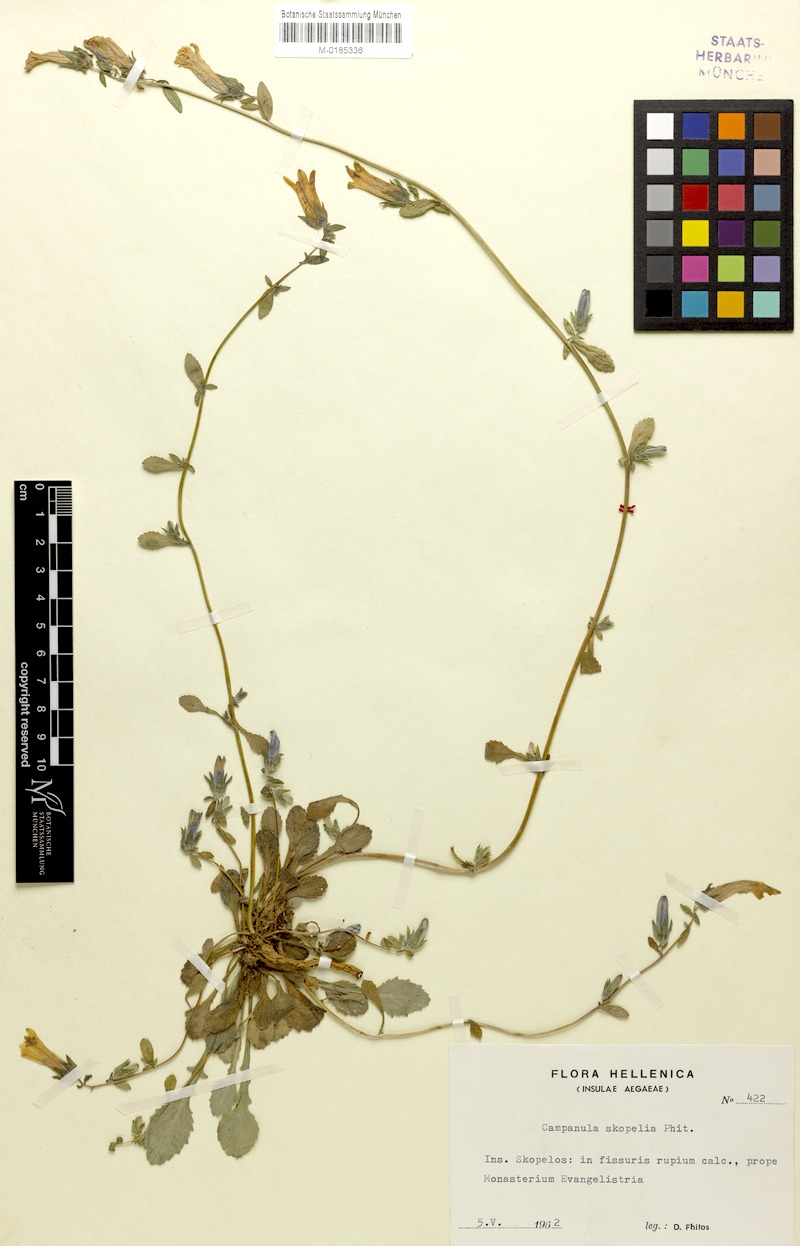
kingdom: Plantae
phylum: Tracheophyta
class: Magnoliopsida
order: Asterales
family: Campanulaceae
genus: Campanula
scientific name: Campanula scopelia
